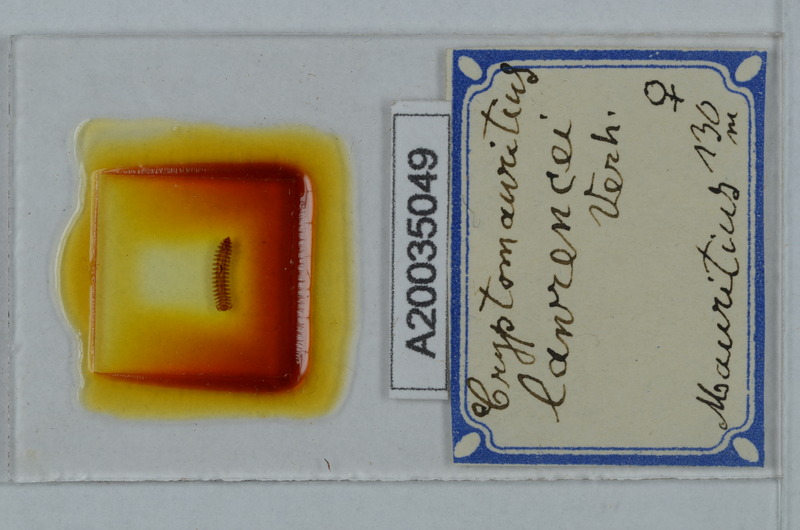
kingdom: Animalia
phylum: Arthropoda
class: Diplopoda
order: Polydesmida
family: Cryptodesmidae
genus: Cryptodesmus
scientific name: Cryptodesmus
